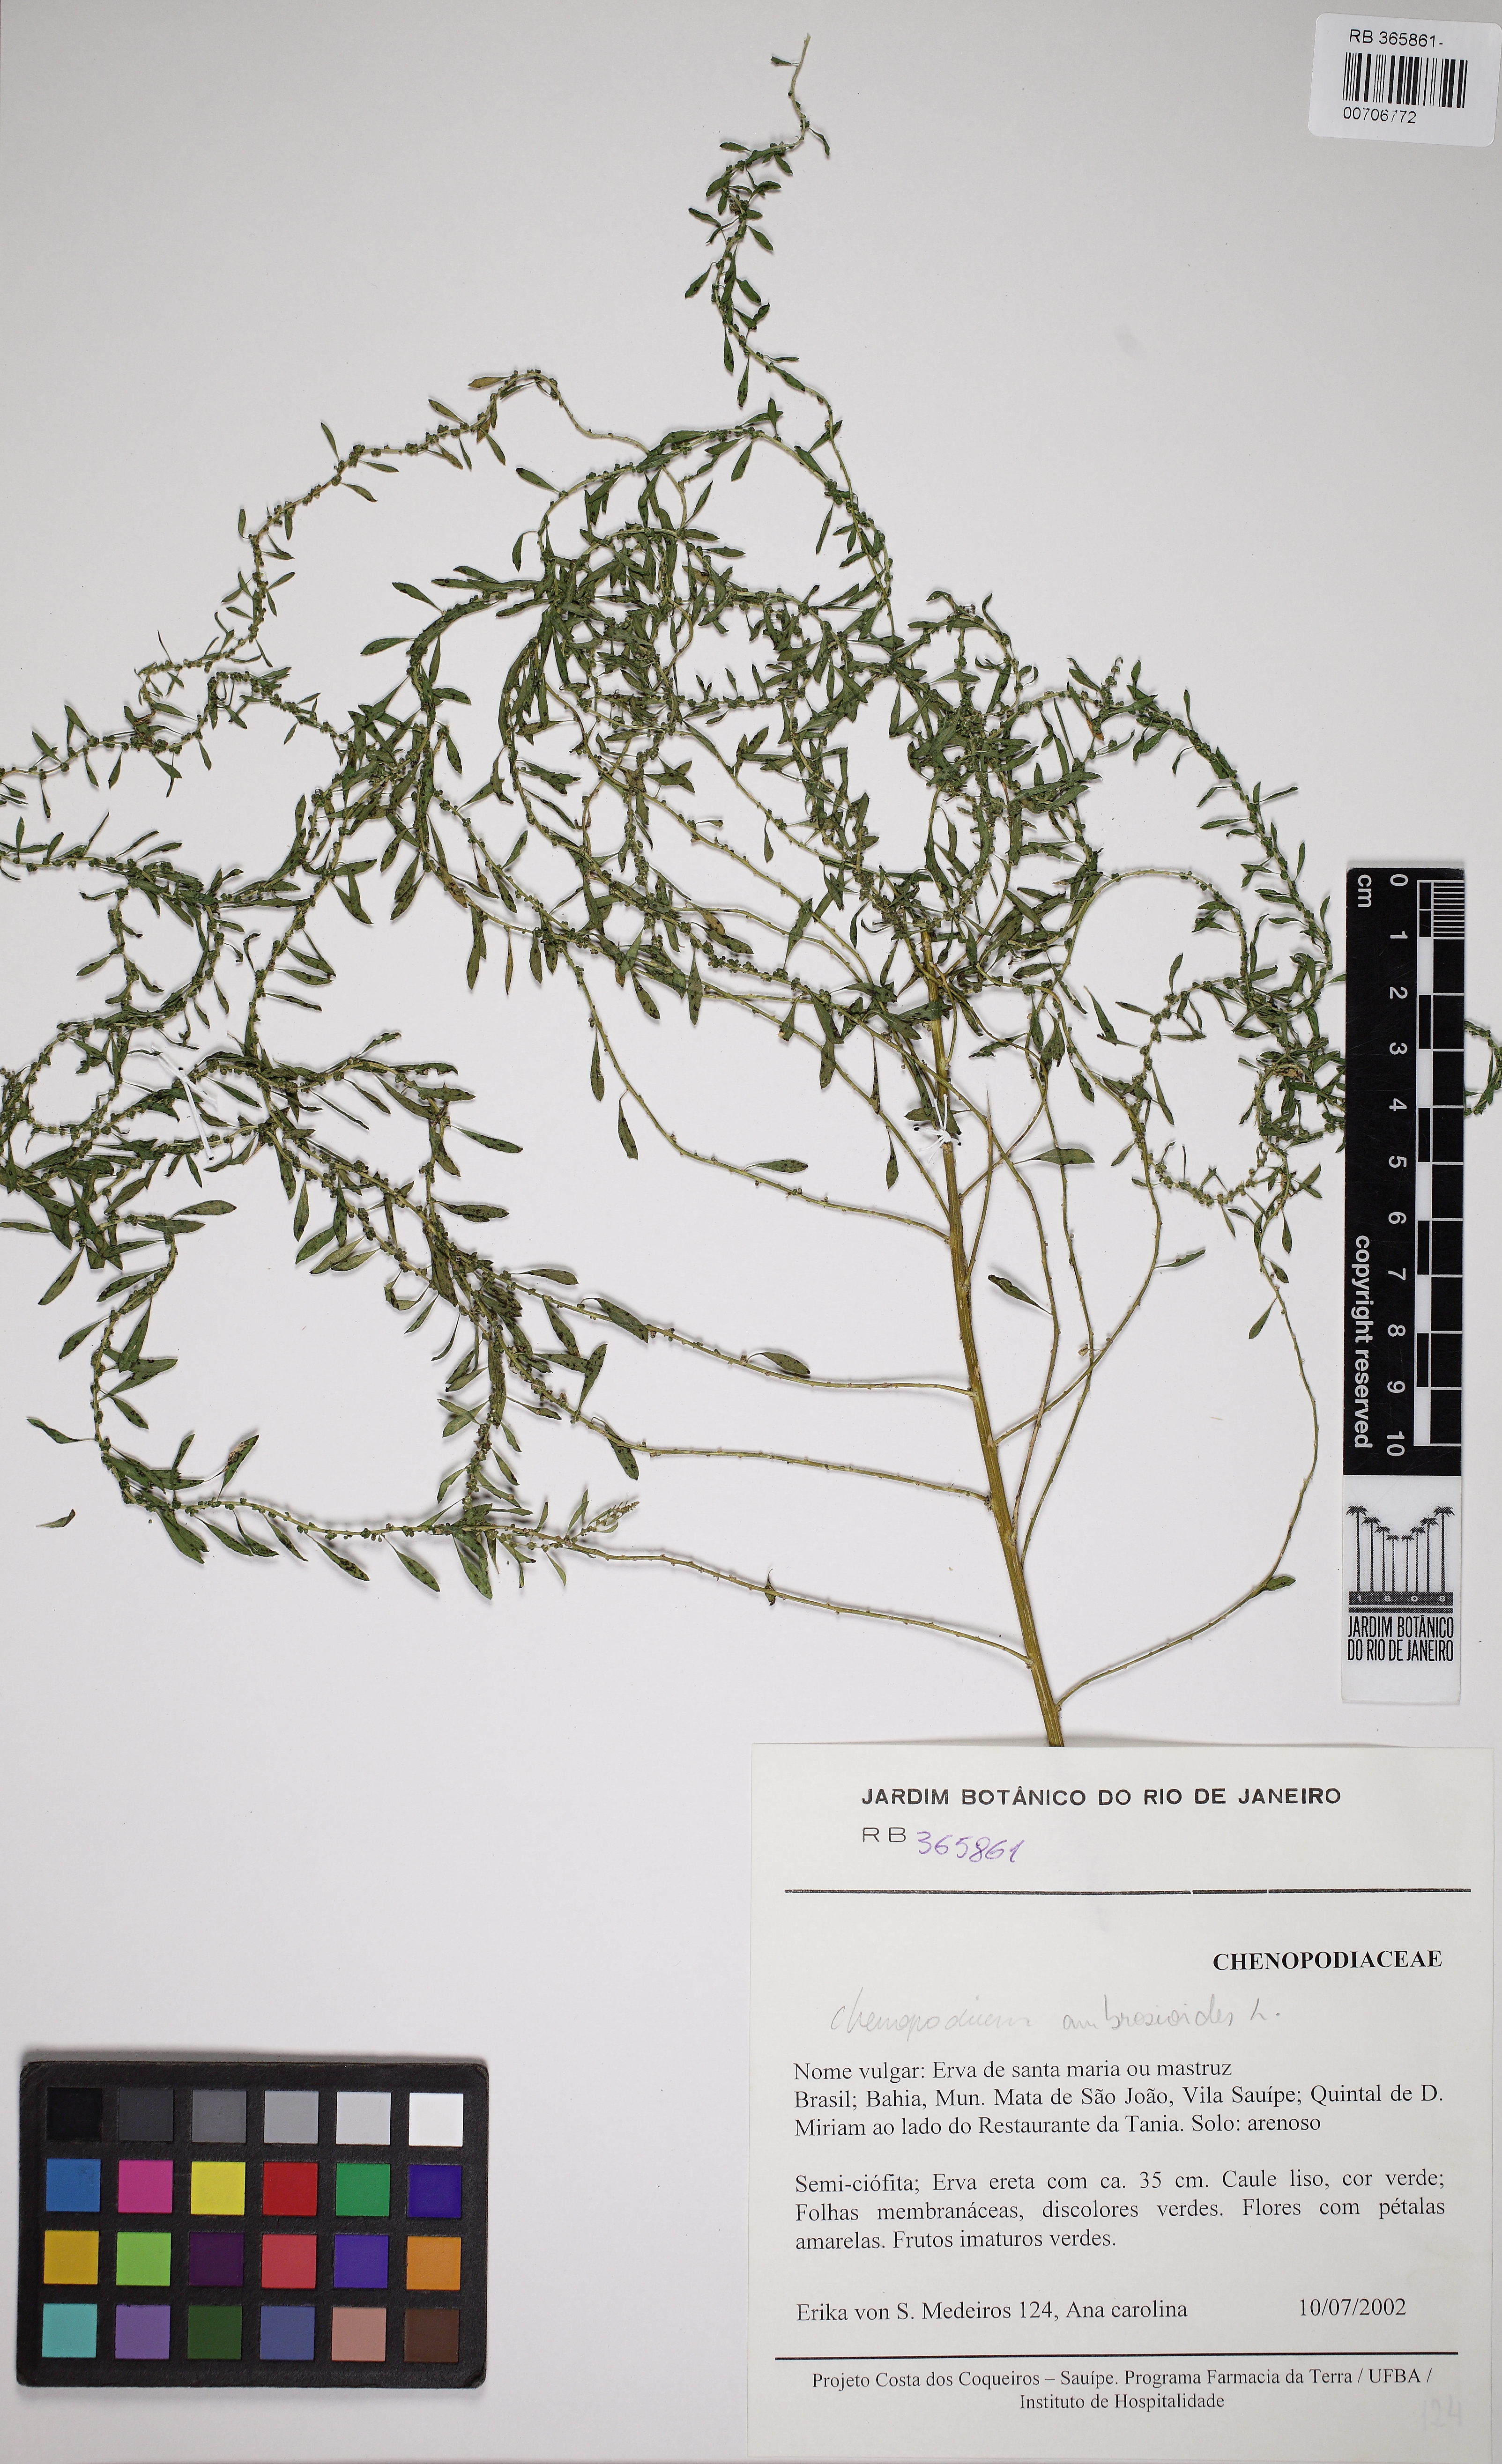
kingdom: Plantae
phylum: Tracheophyta
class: Magnoliopsida
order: Caryophyllales
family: Amaranthaceae
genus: Dysphania
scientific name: Dysphania ambrosioides
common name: Wormseed
